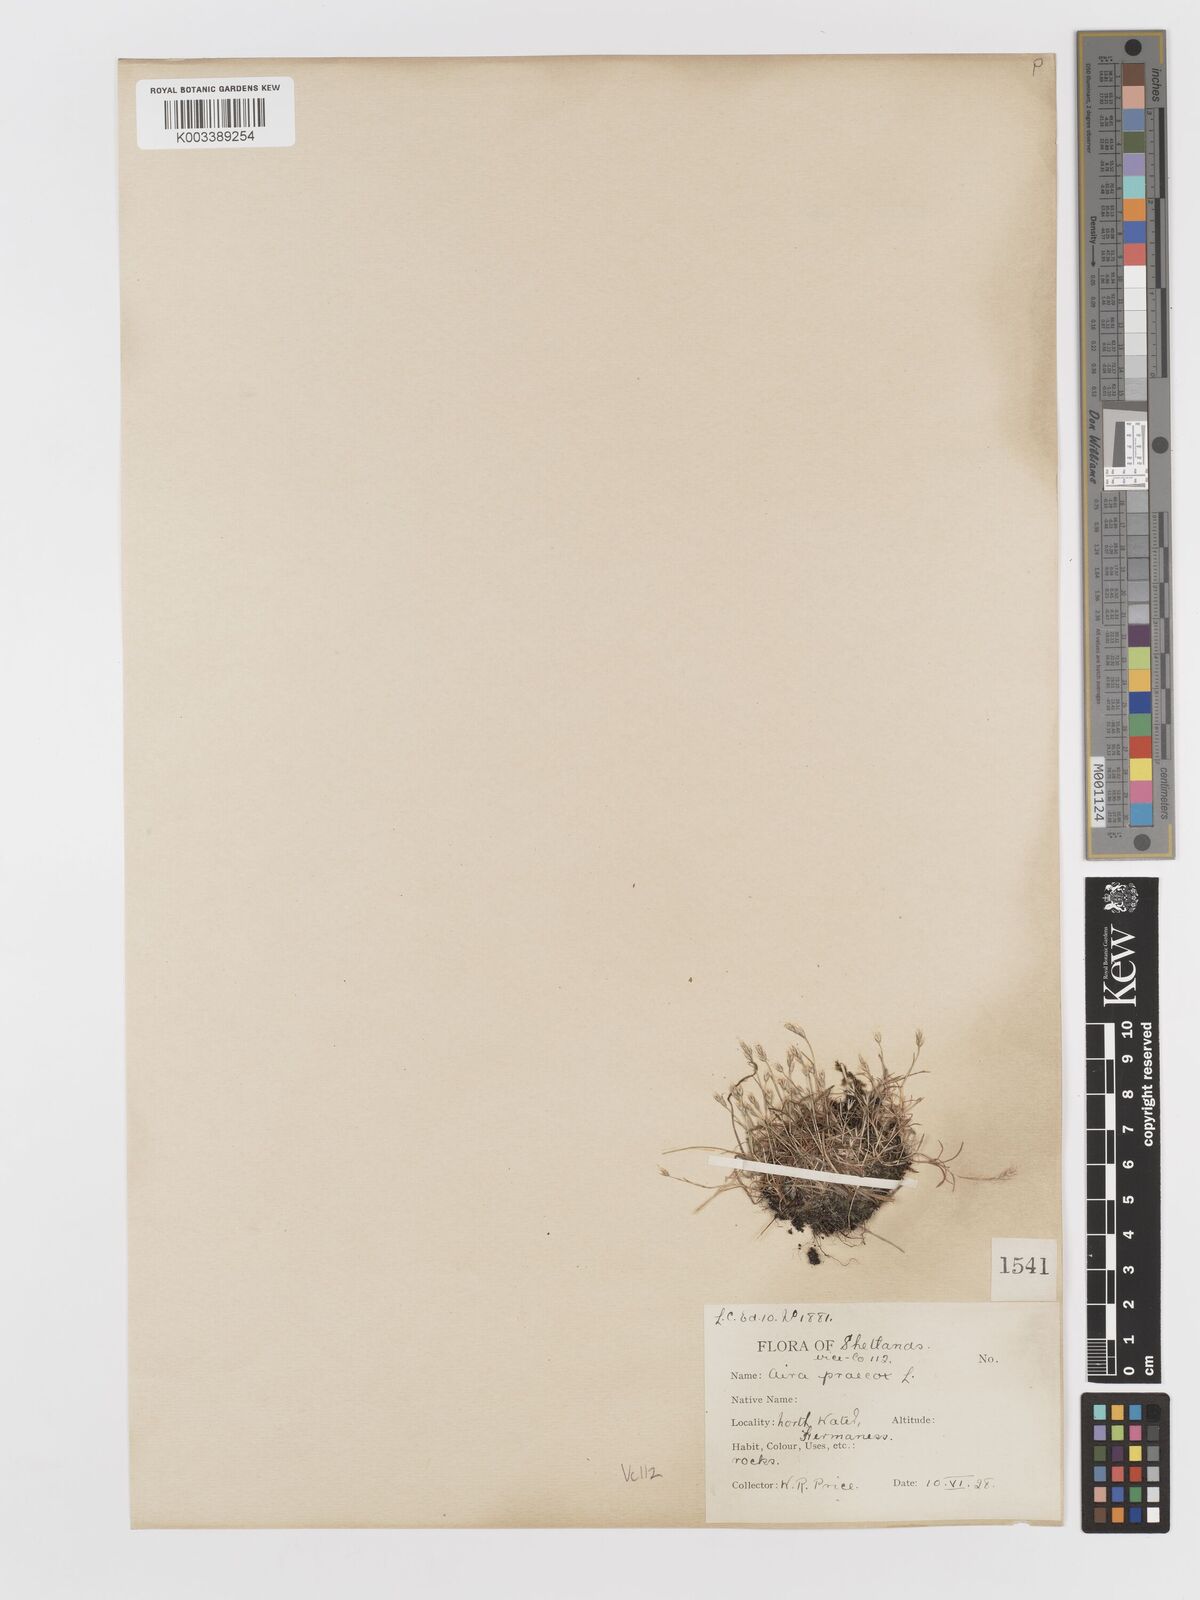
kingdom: Plantae
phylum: Tracheophyta
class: Liliopsida
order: Poales
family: Poaceae
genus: Aira
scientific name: Aira praecox
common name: Early hair-grass
